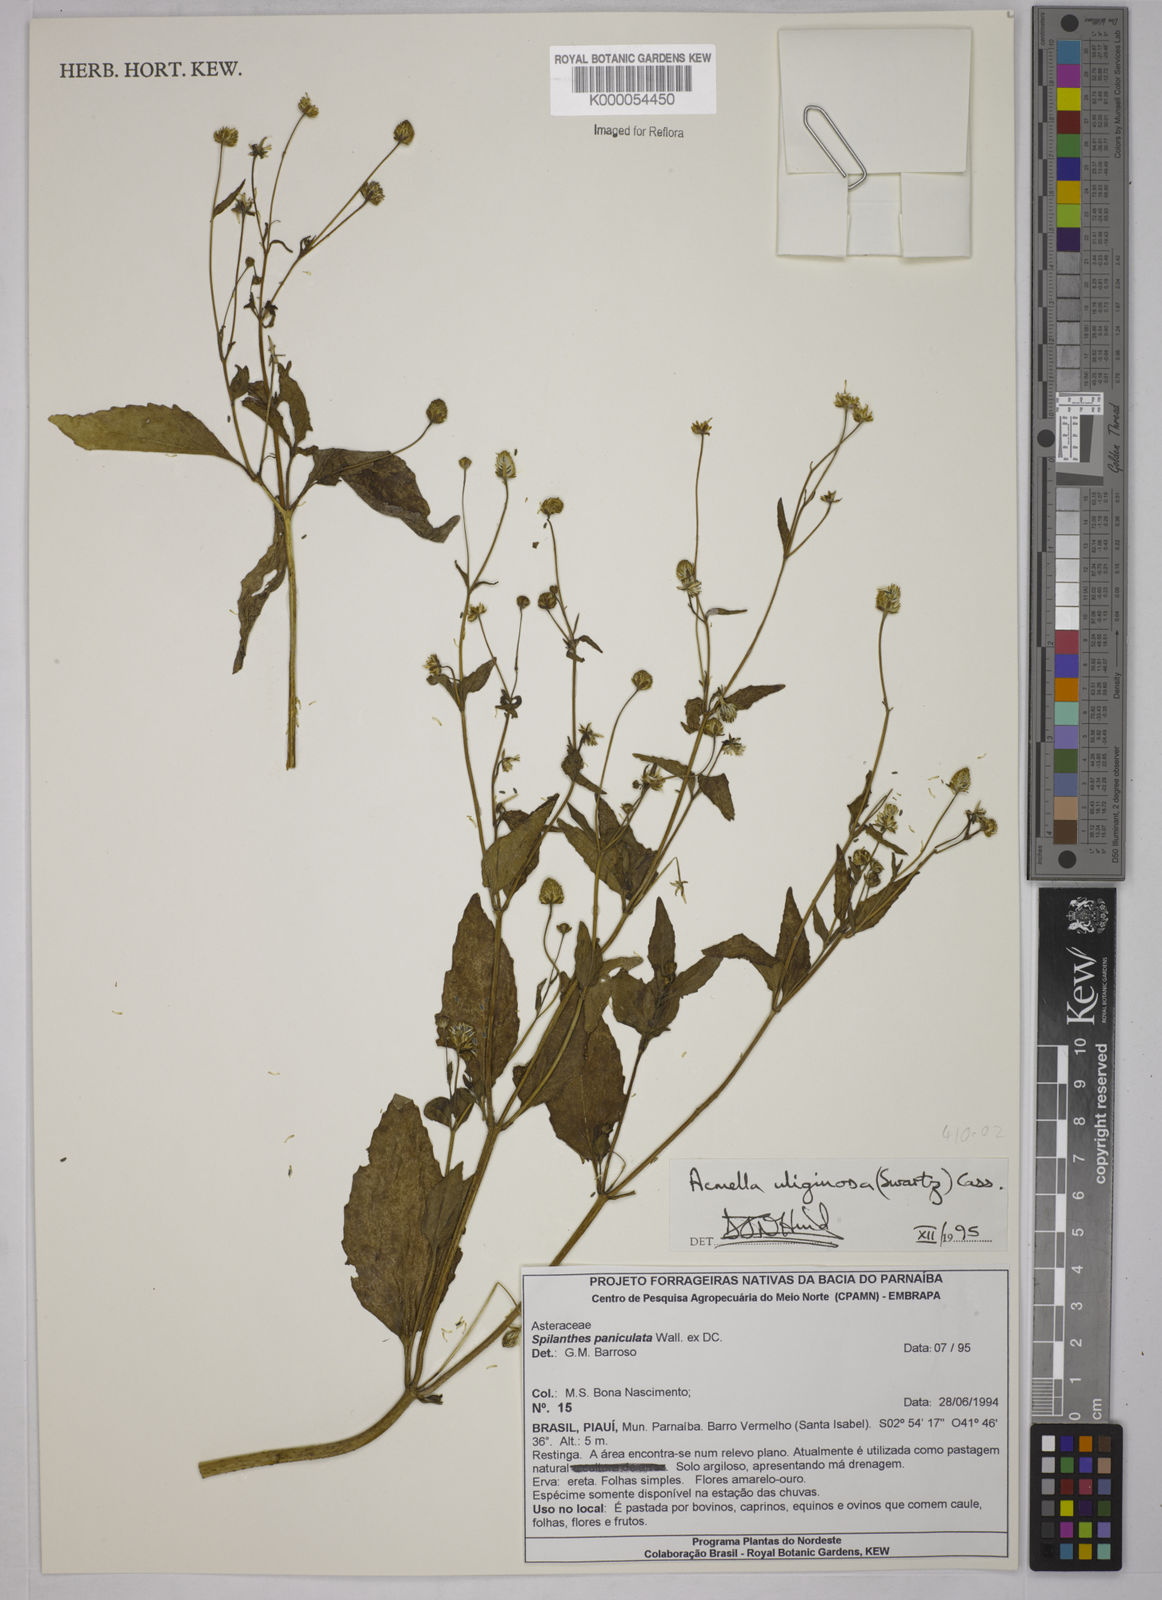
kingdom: Plantae
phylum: Tracheophyta
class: Magnoliopsida
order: Asterales
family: Asteraceae
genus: Acmella
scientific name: Acmella uliginosa
